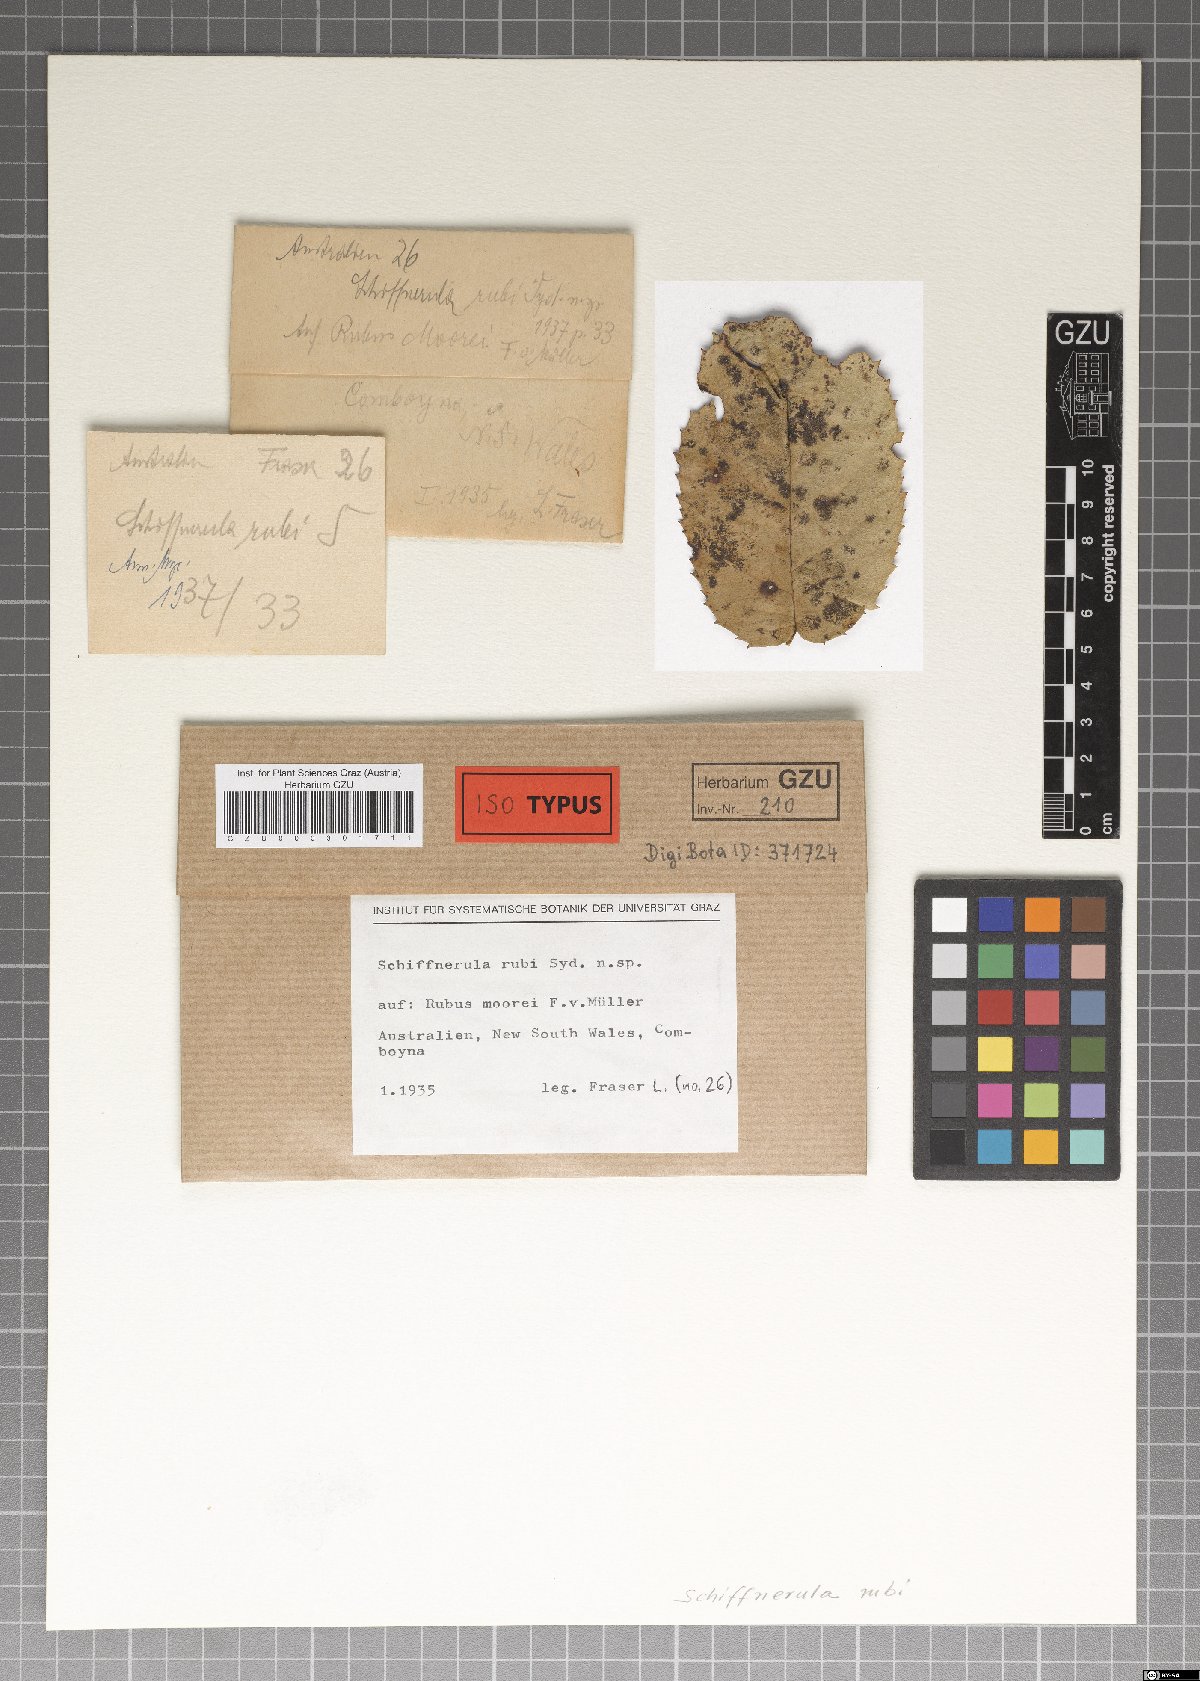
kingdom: Fungi
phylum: Ascomycota
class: Dothideomycetes
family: Englerulaceae
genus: Schiffnerula
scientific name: Schiffnerula rubi
